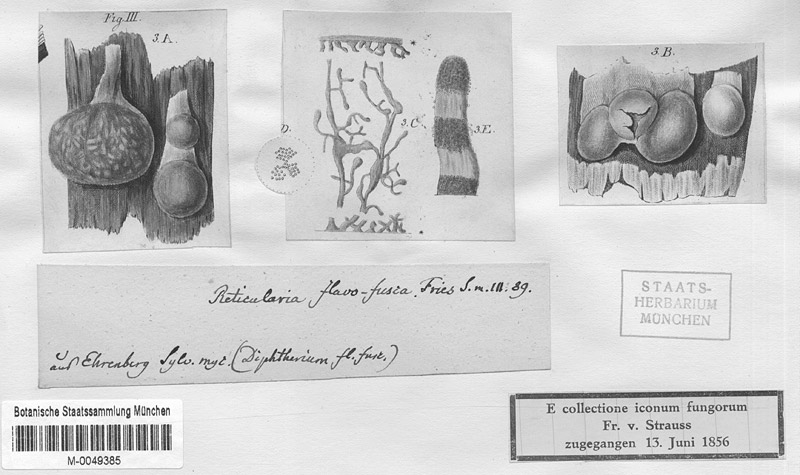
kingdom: Protozoa
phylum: Mycetozoa
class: Myxomycetes
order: Cribrariales
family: Tubiferaceae
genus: Lycogala
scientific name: Lycogala flavofuscum
